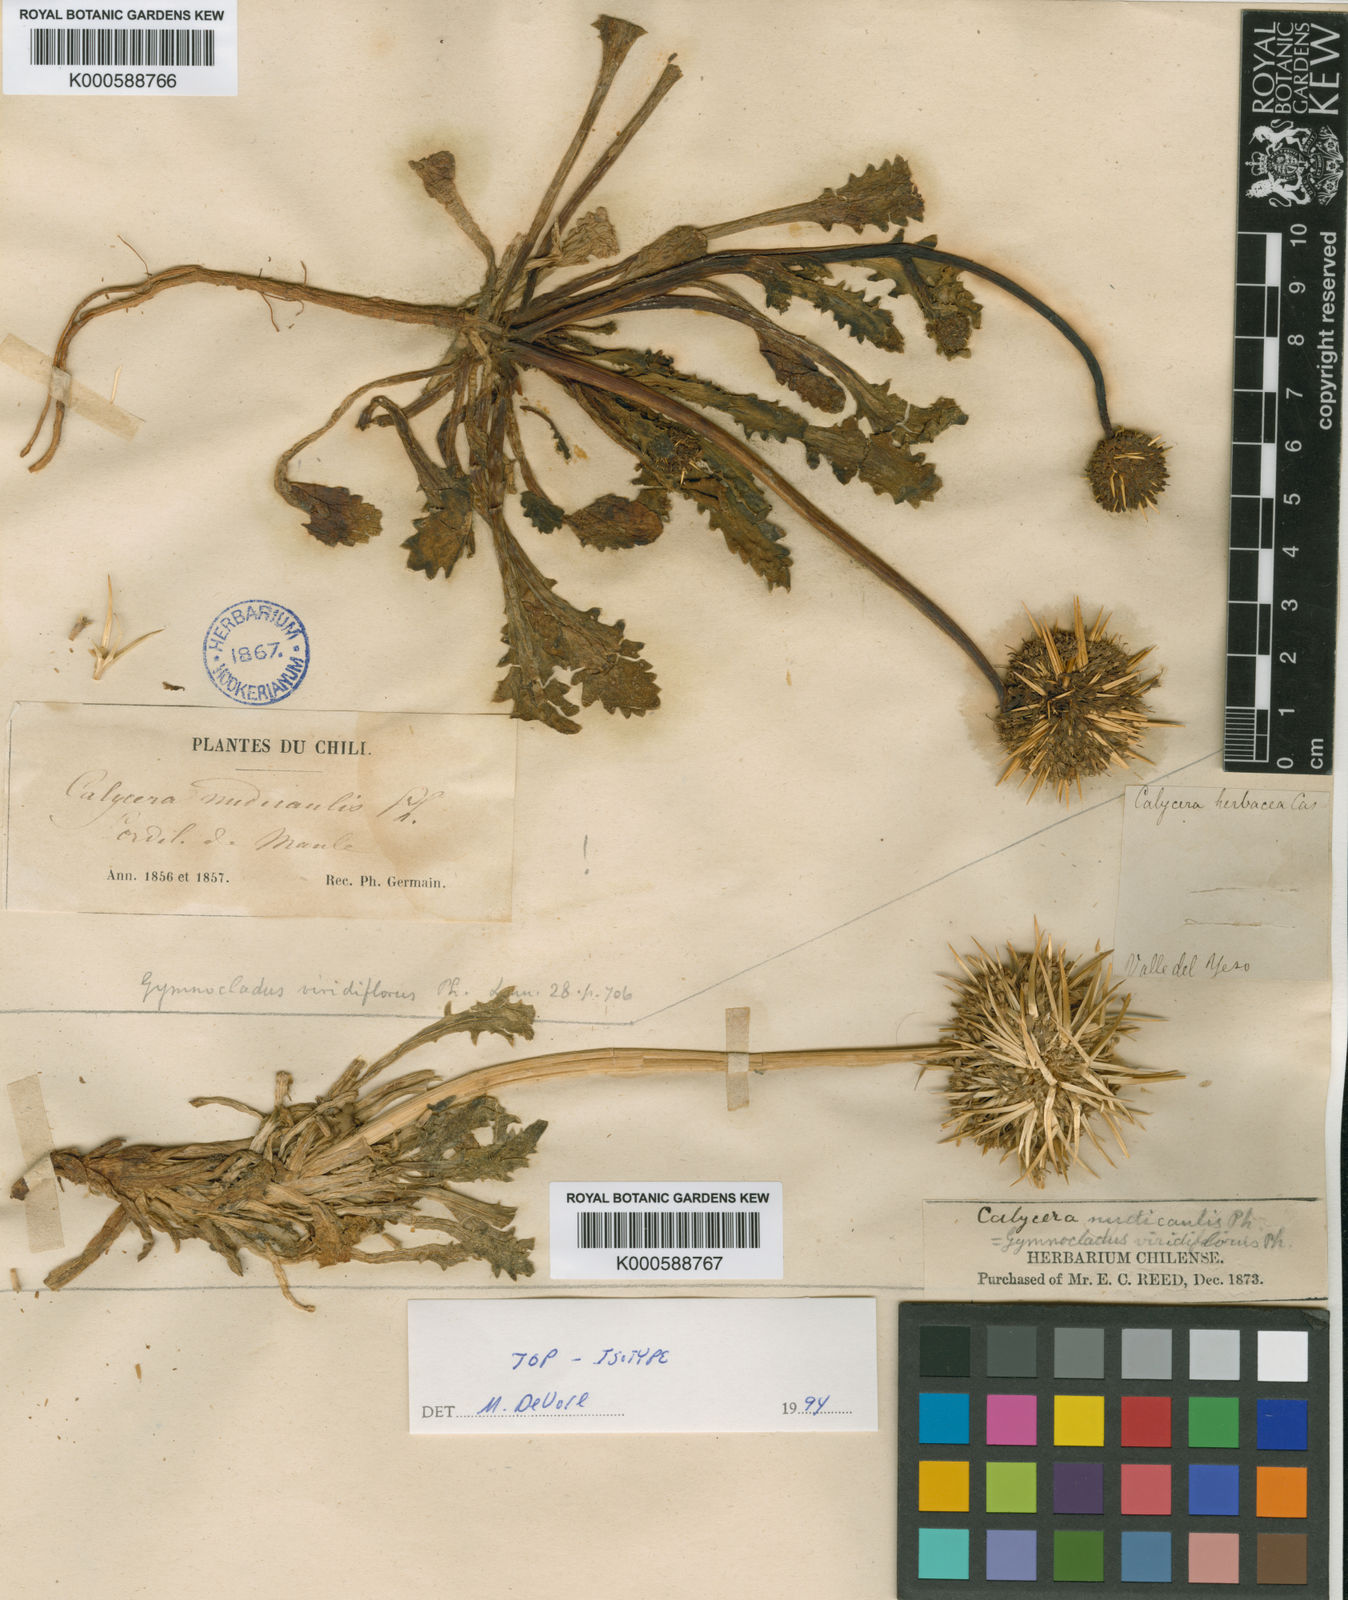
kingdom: Plantae
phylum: Tracheophyta
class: Magnoliopsida
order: Asterales
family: Calyceraceae
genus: Calycera
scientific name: Calycera herbacea
